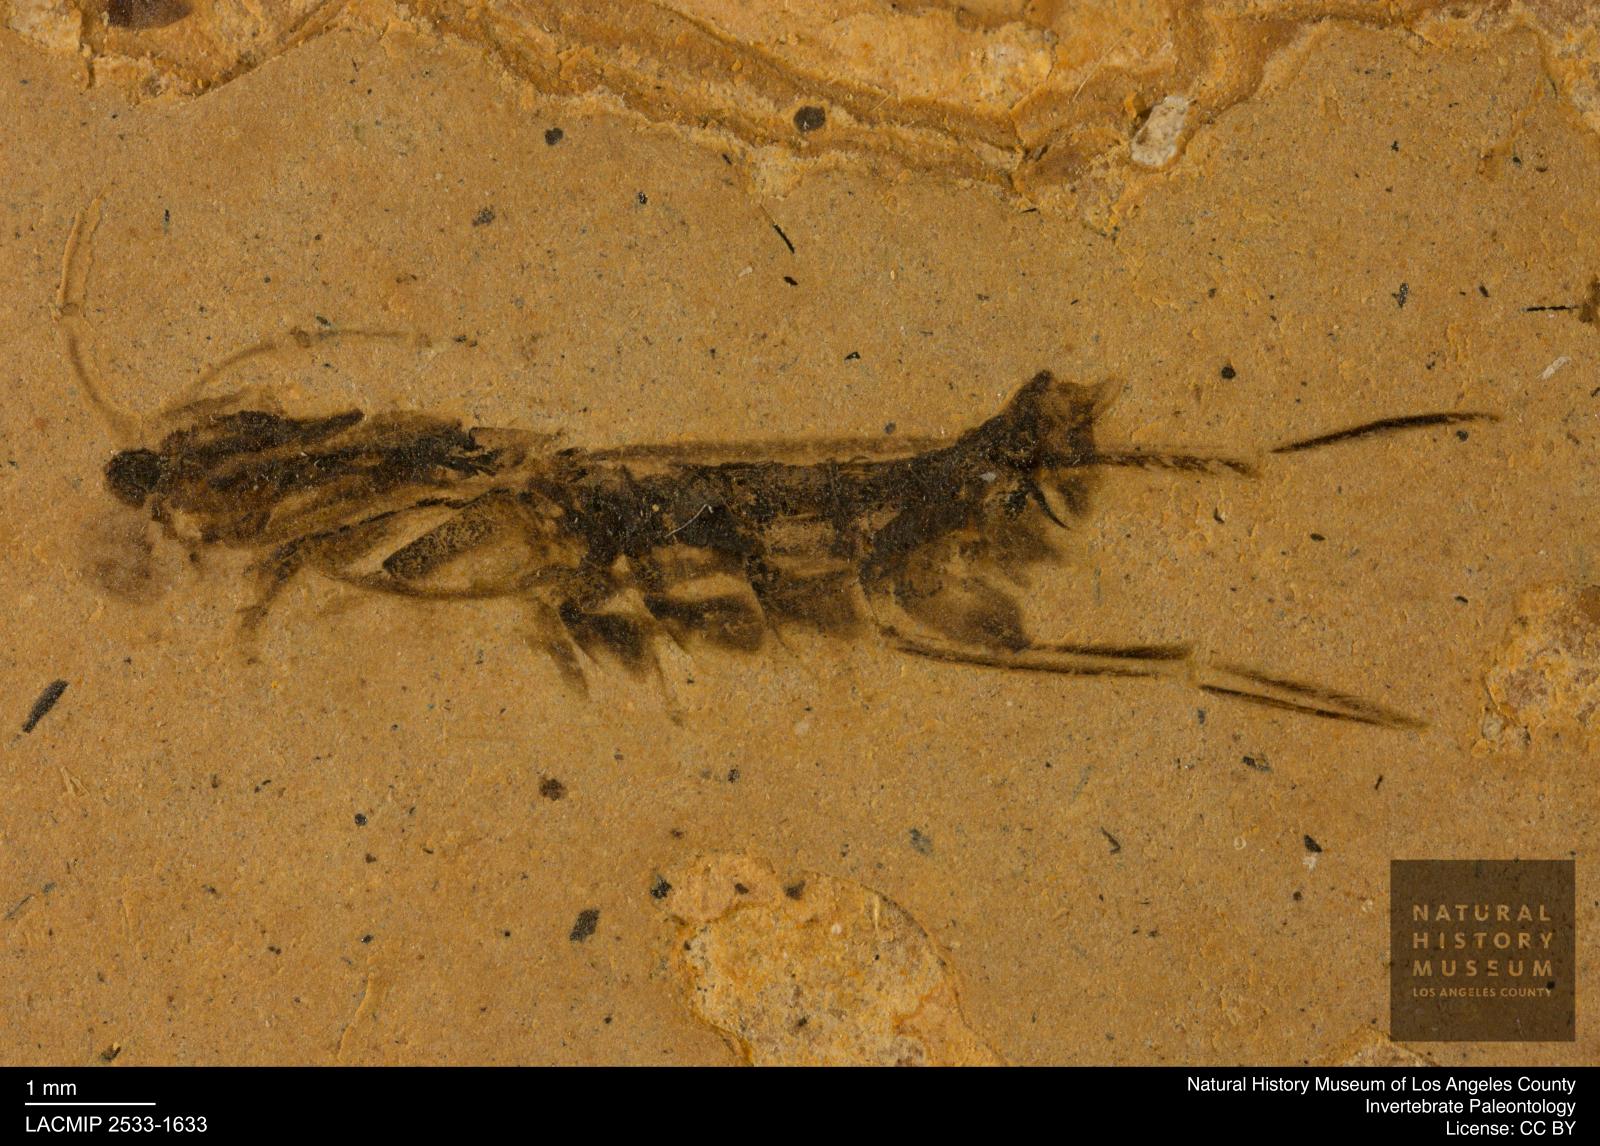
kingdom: Animalia
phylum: Arthropoda
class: Insecta
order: Hemiptera
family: Notonectidae
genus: Notonecta
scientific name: Notonecta
